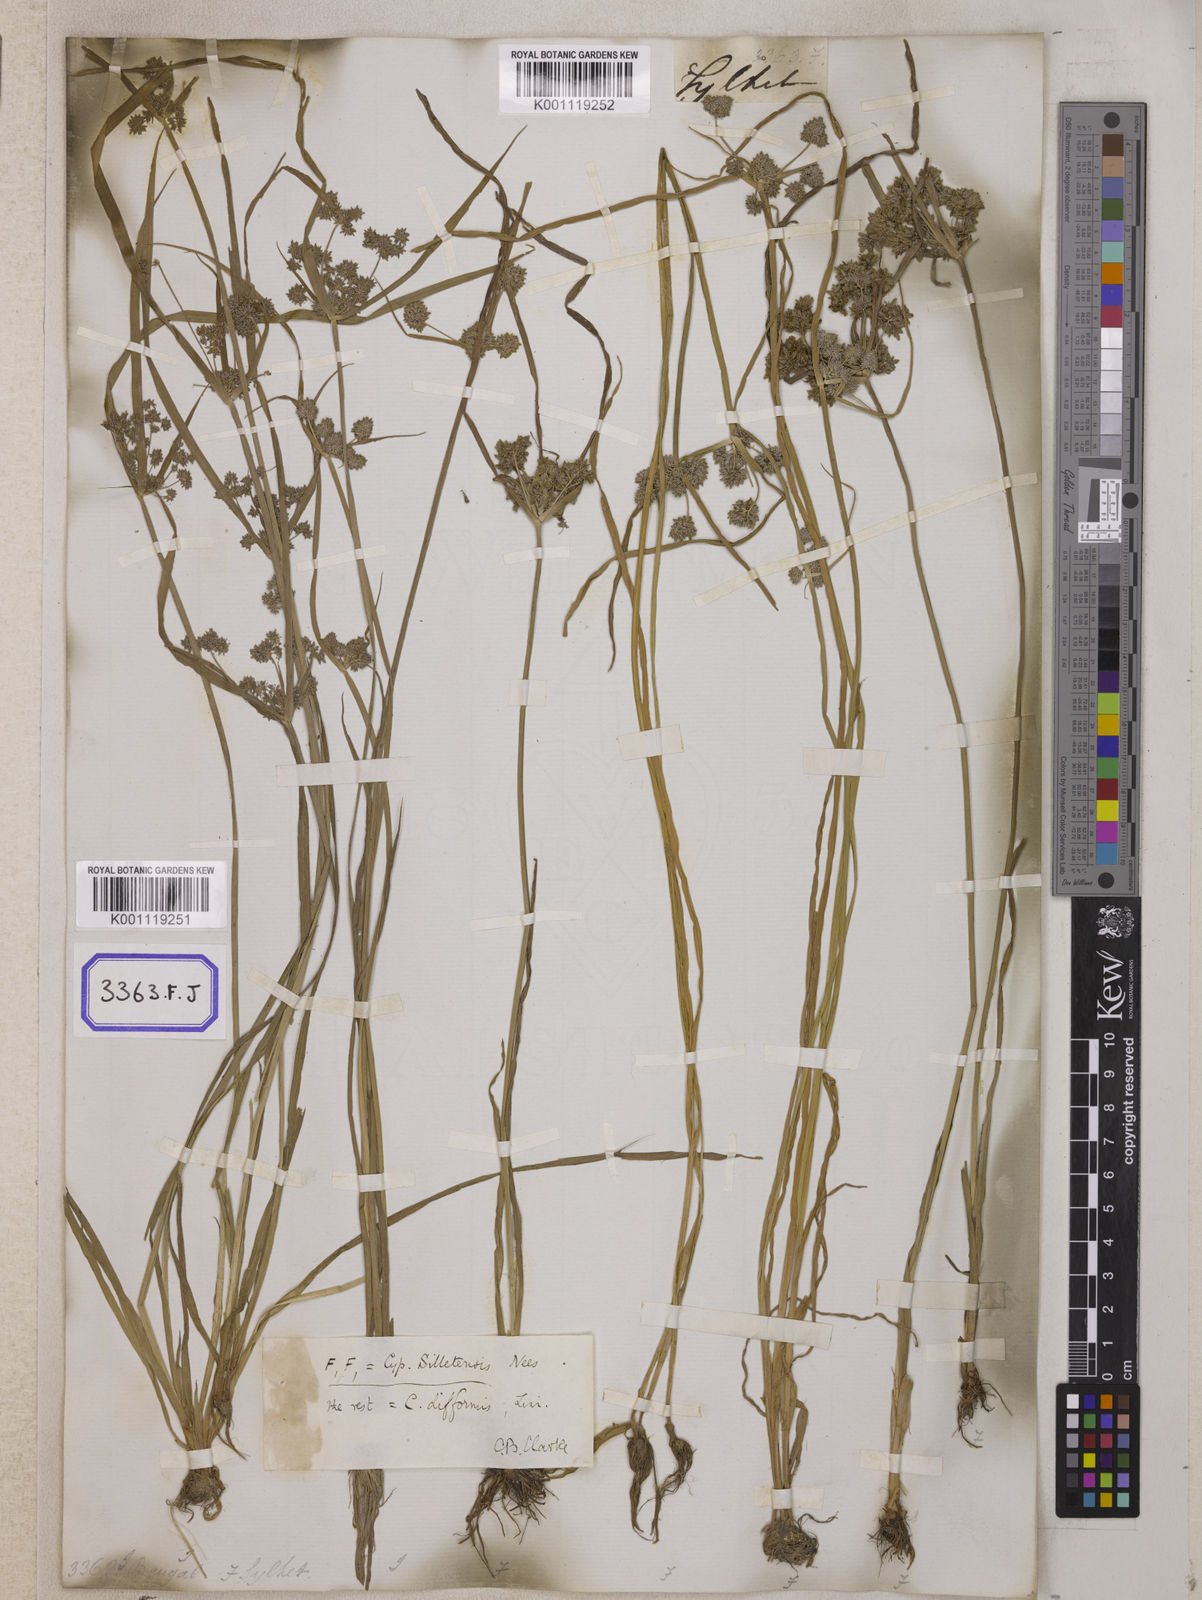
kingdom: Plantae
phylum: Tracheophyta
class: Liliopsida
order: Poales
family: Cyperaceae
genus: Cyperus
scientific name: Cyperus
